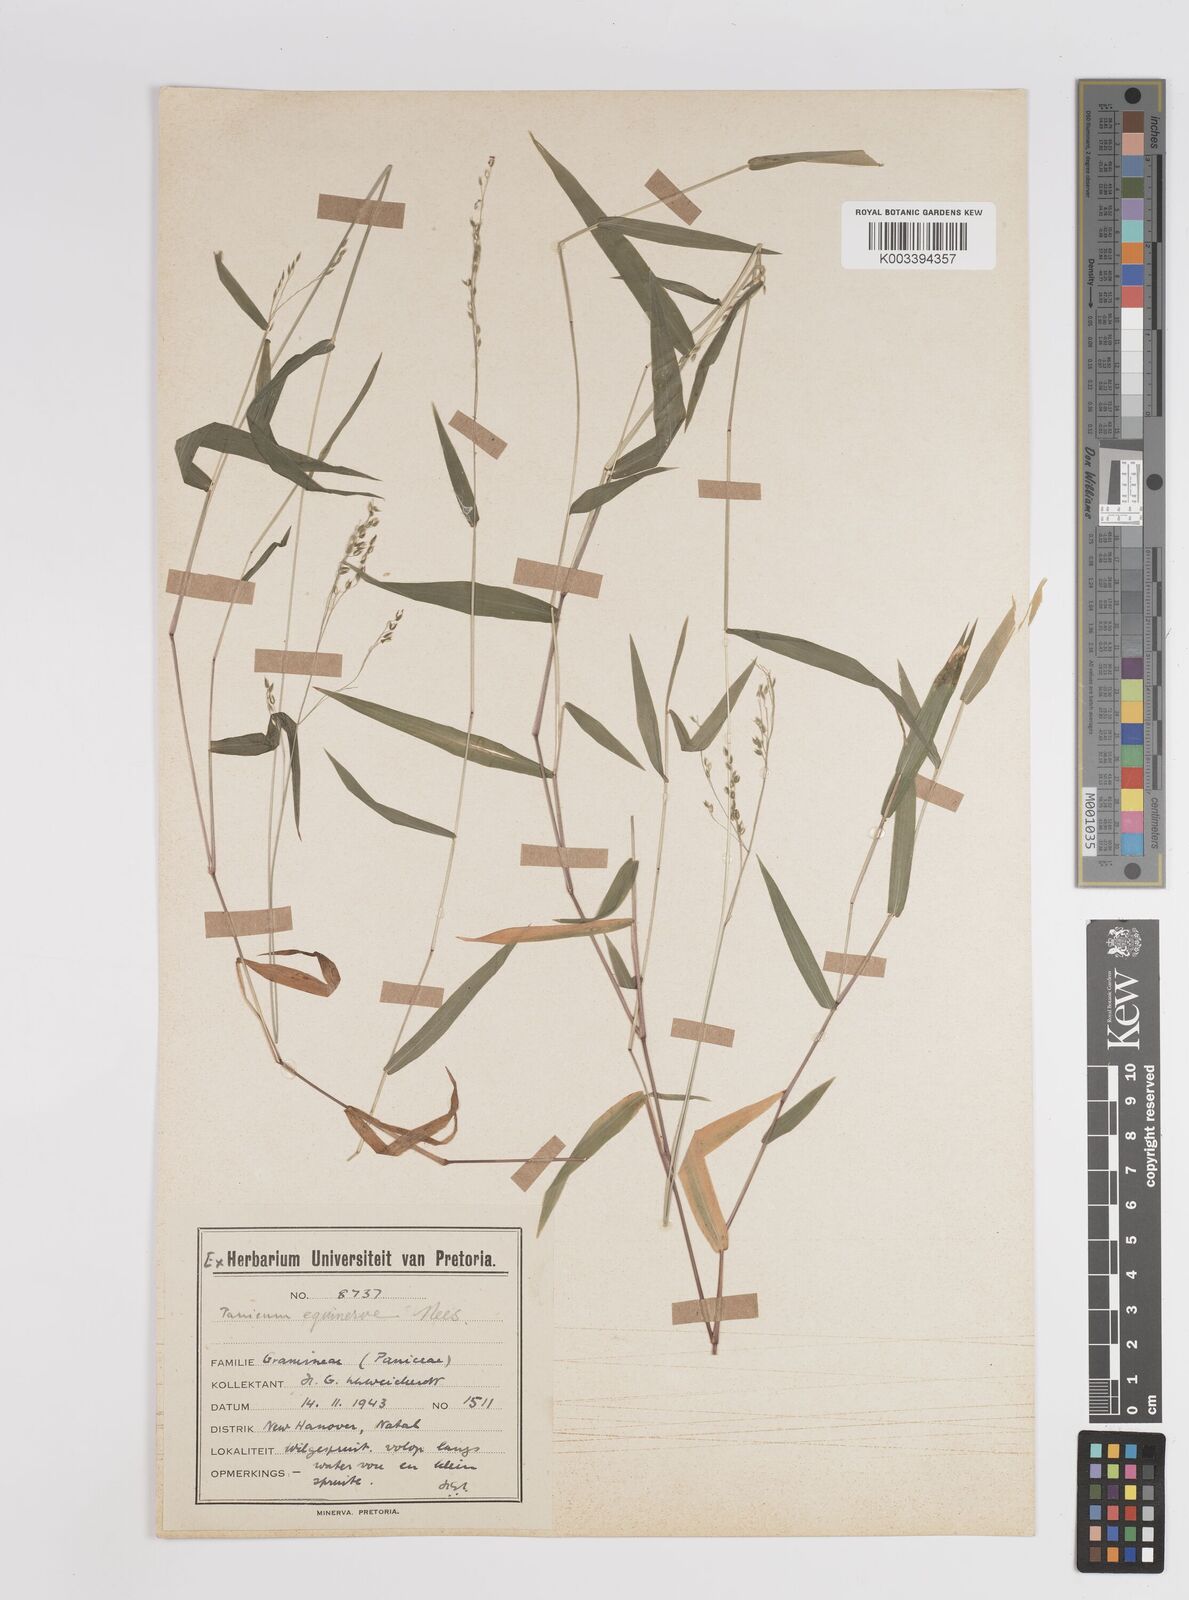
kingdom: Plantae
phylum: Tracheophyta
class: Liliopsida
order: Poales
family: Poaceae
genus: Panicum
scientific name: Panicum aequinerve
